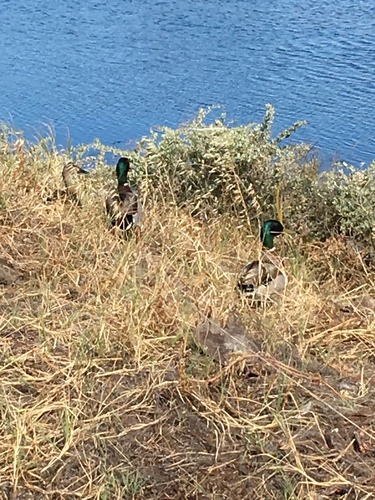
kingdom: Animalia
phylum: Chordata
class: Aves
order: Anseriformes
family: Anatidae
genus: Anas
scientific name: Anas platyrhynchos
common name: Mallard
